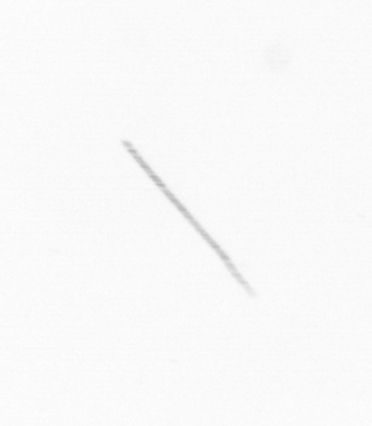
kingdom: Chromista
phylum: Ochrophyta
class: Bacillariophyceae
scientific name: Bacillariophyceae
